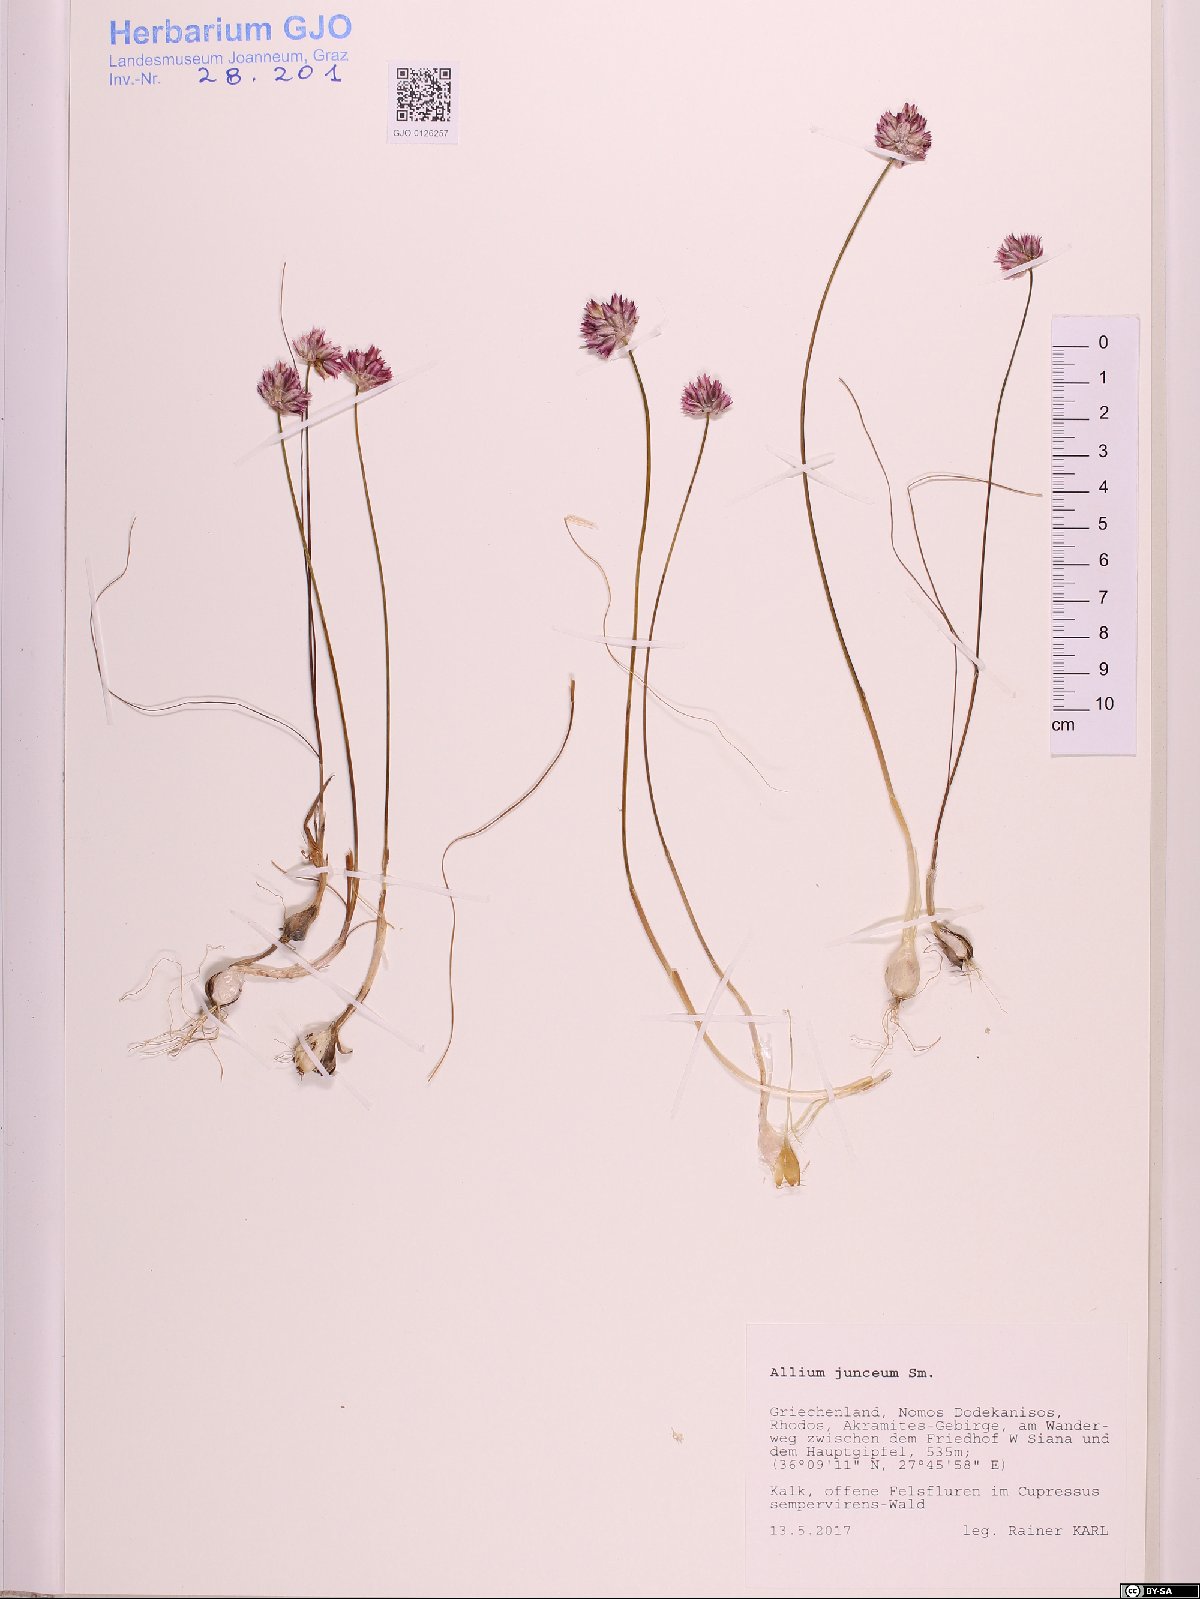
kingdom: Plantae
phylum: Tracheophyta
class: Liliopsida
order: Asparagales
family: Amaryllidaceae
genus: Allium
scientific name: Allium junceum
